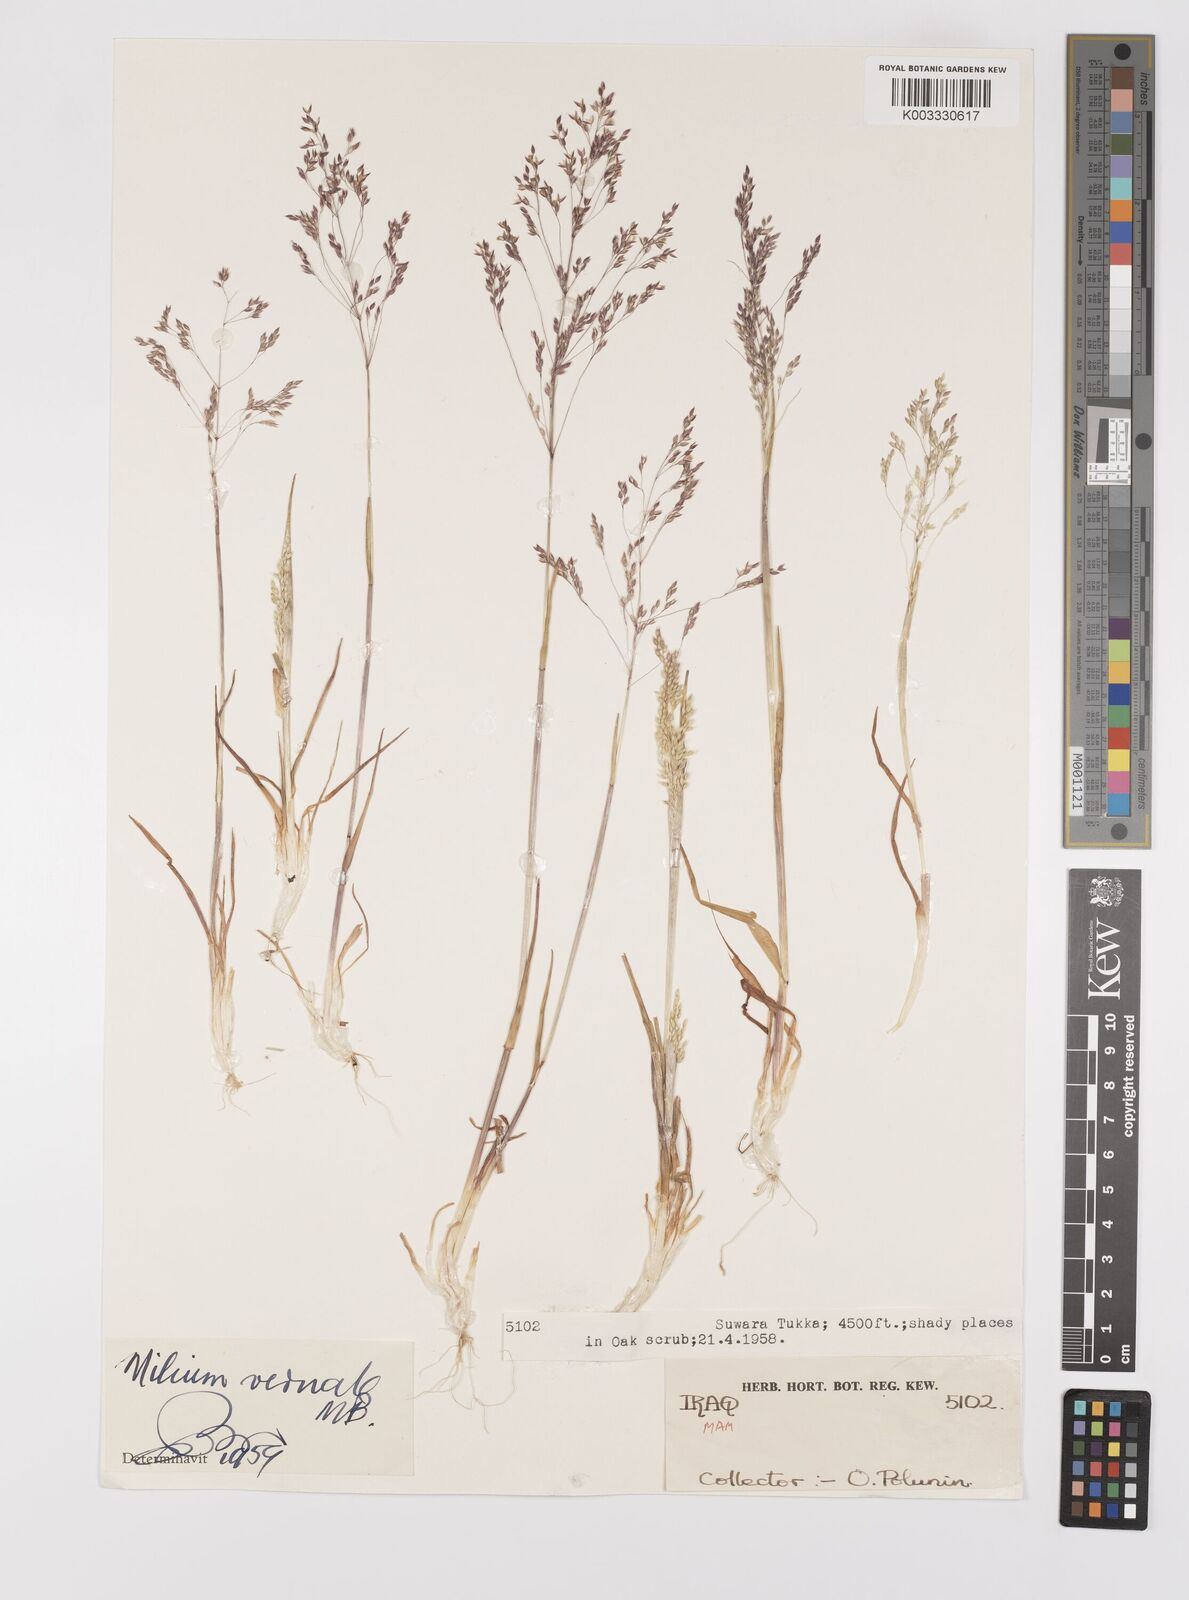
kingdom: Plantae
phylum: Tracheophyta
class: Liliopsida
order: Poales
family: Poaceae
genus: Milium
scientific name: Milium vernale
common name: Early millet
